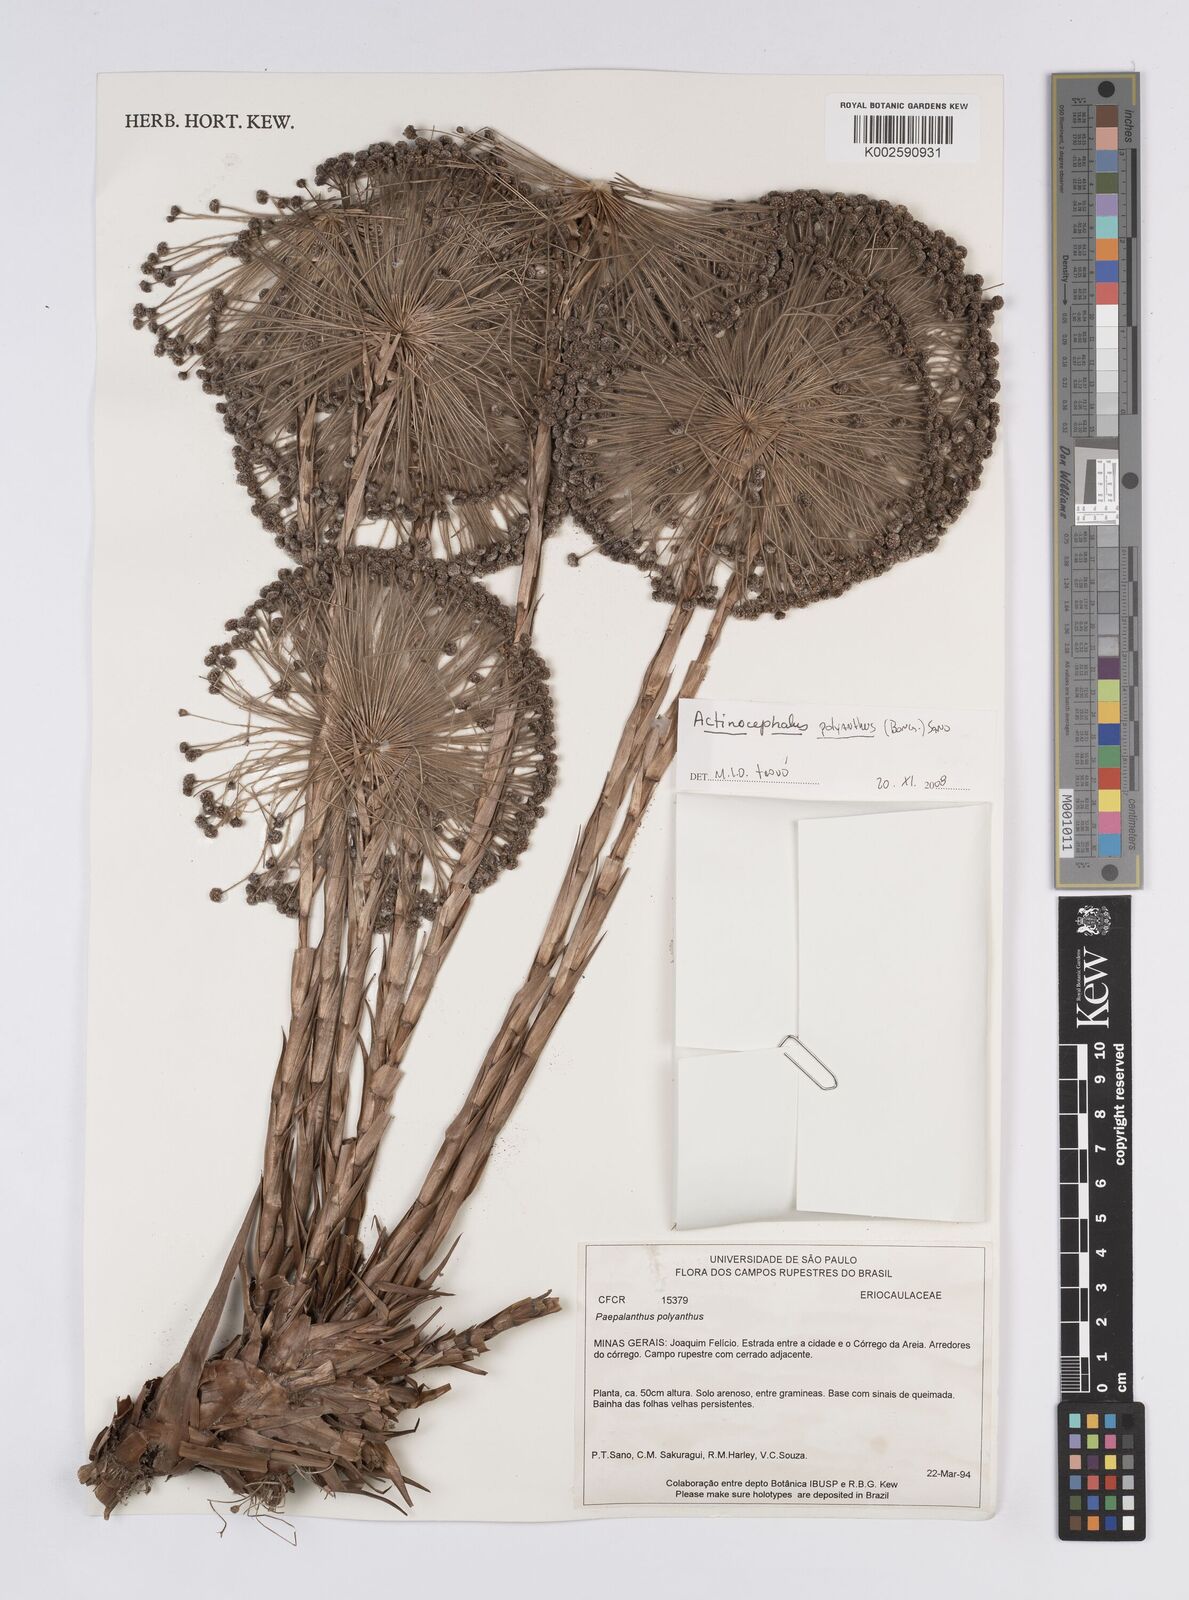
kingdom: Plantae
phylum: Tracheophyta
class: Liliopsida
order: Poales
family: Eriocaulaceae
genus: Paepalanthus
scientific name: Paepalanthus polyanthus
